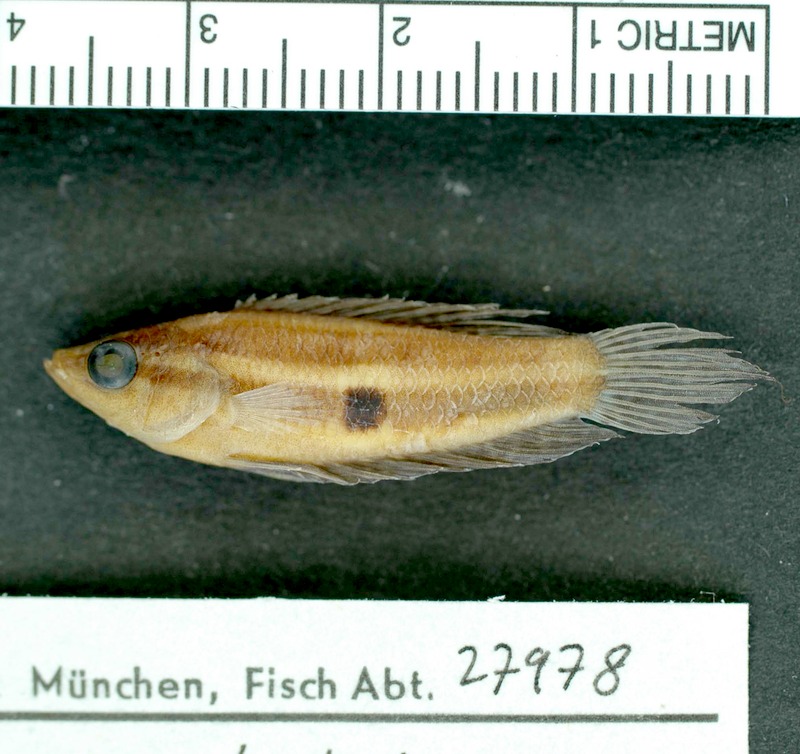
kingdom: Animalia
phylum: Chordata
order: Perciformes
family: Osphronemidae
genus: Parosphromenus
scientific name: Parosphromenus linkei
